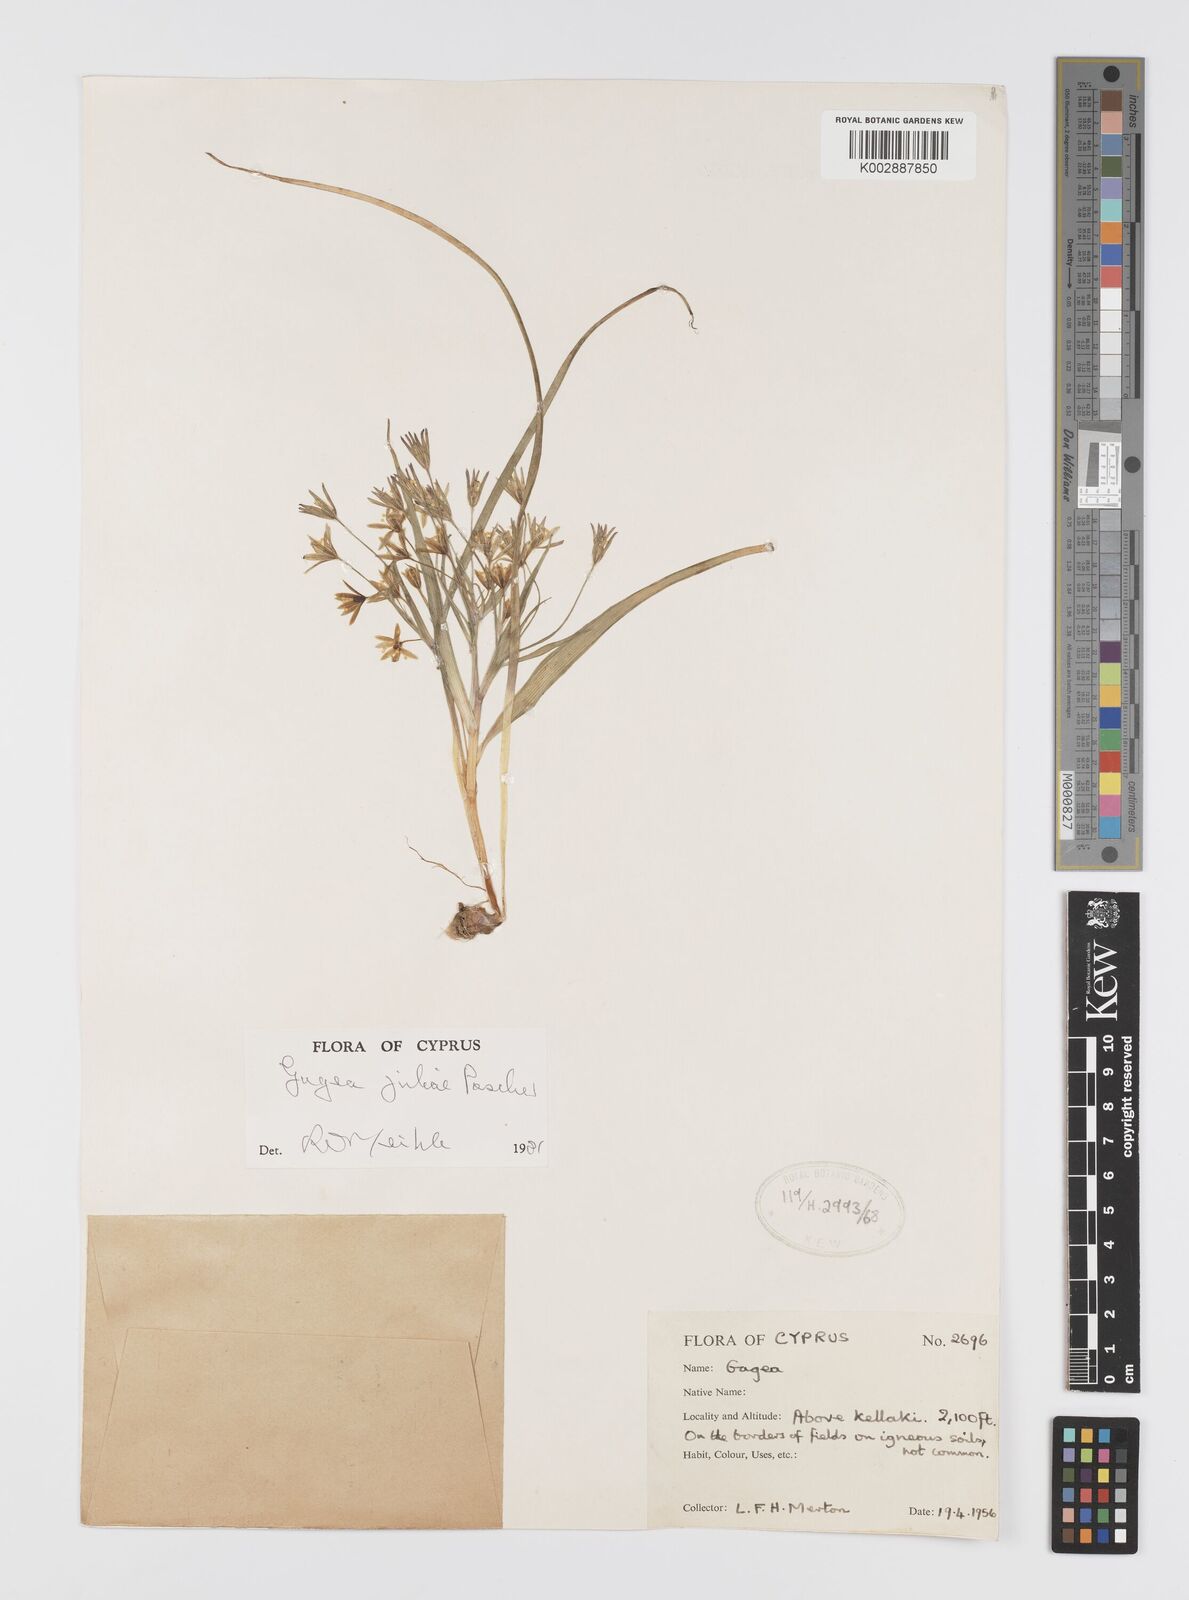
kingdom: Plantae
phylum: Tracheophyta
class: Liliopsida
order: Liliales
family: Liliaceae
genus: Gagea
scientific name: Gagea juliae
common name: Julia’s gagea
